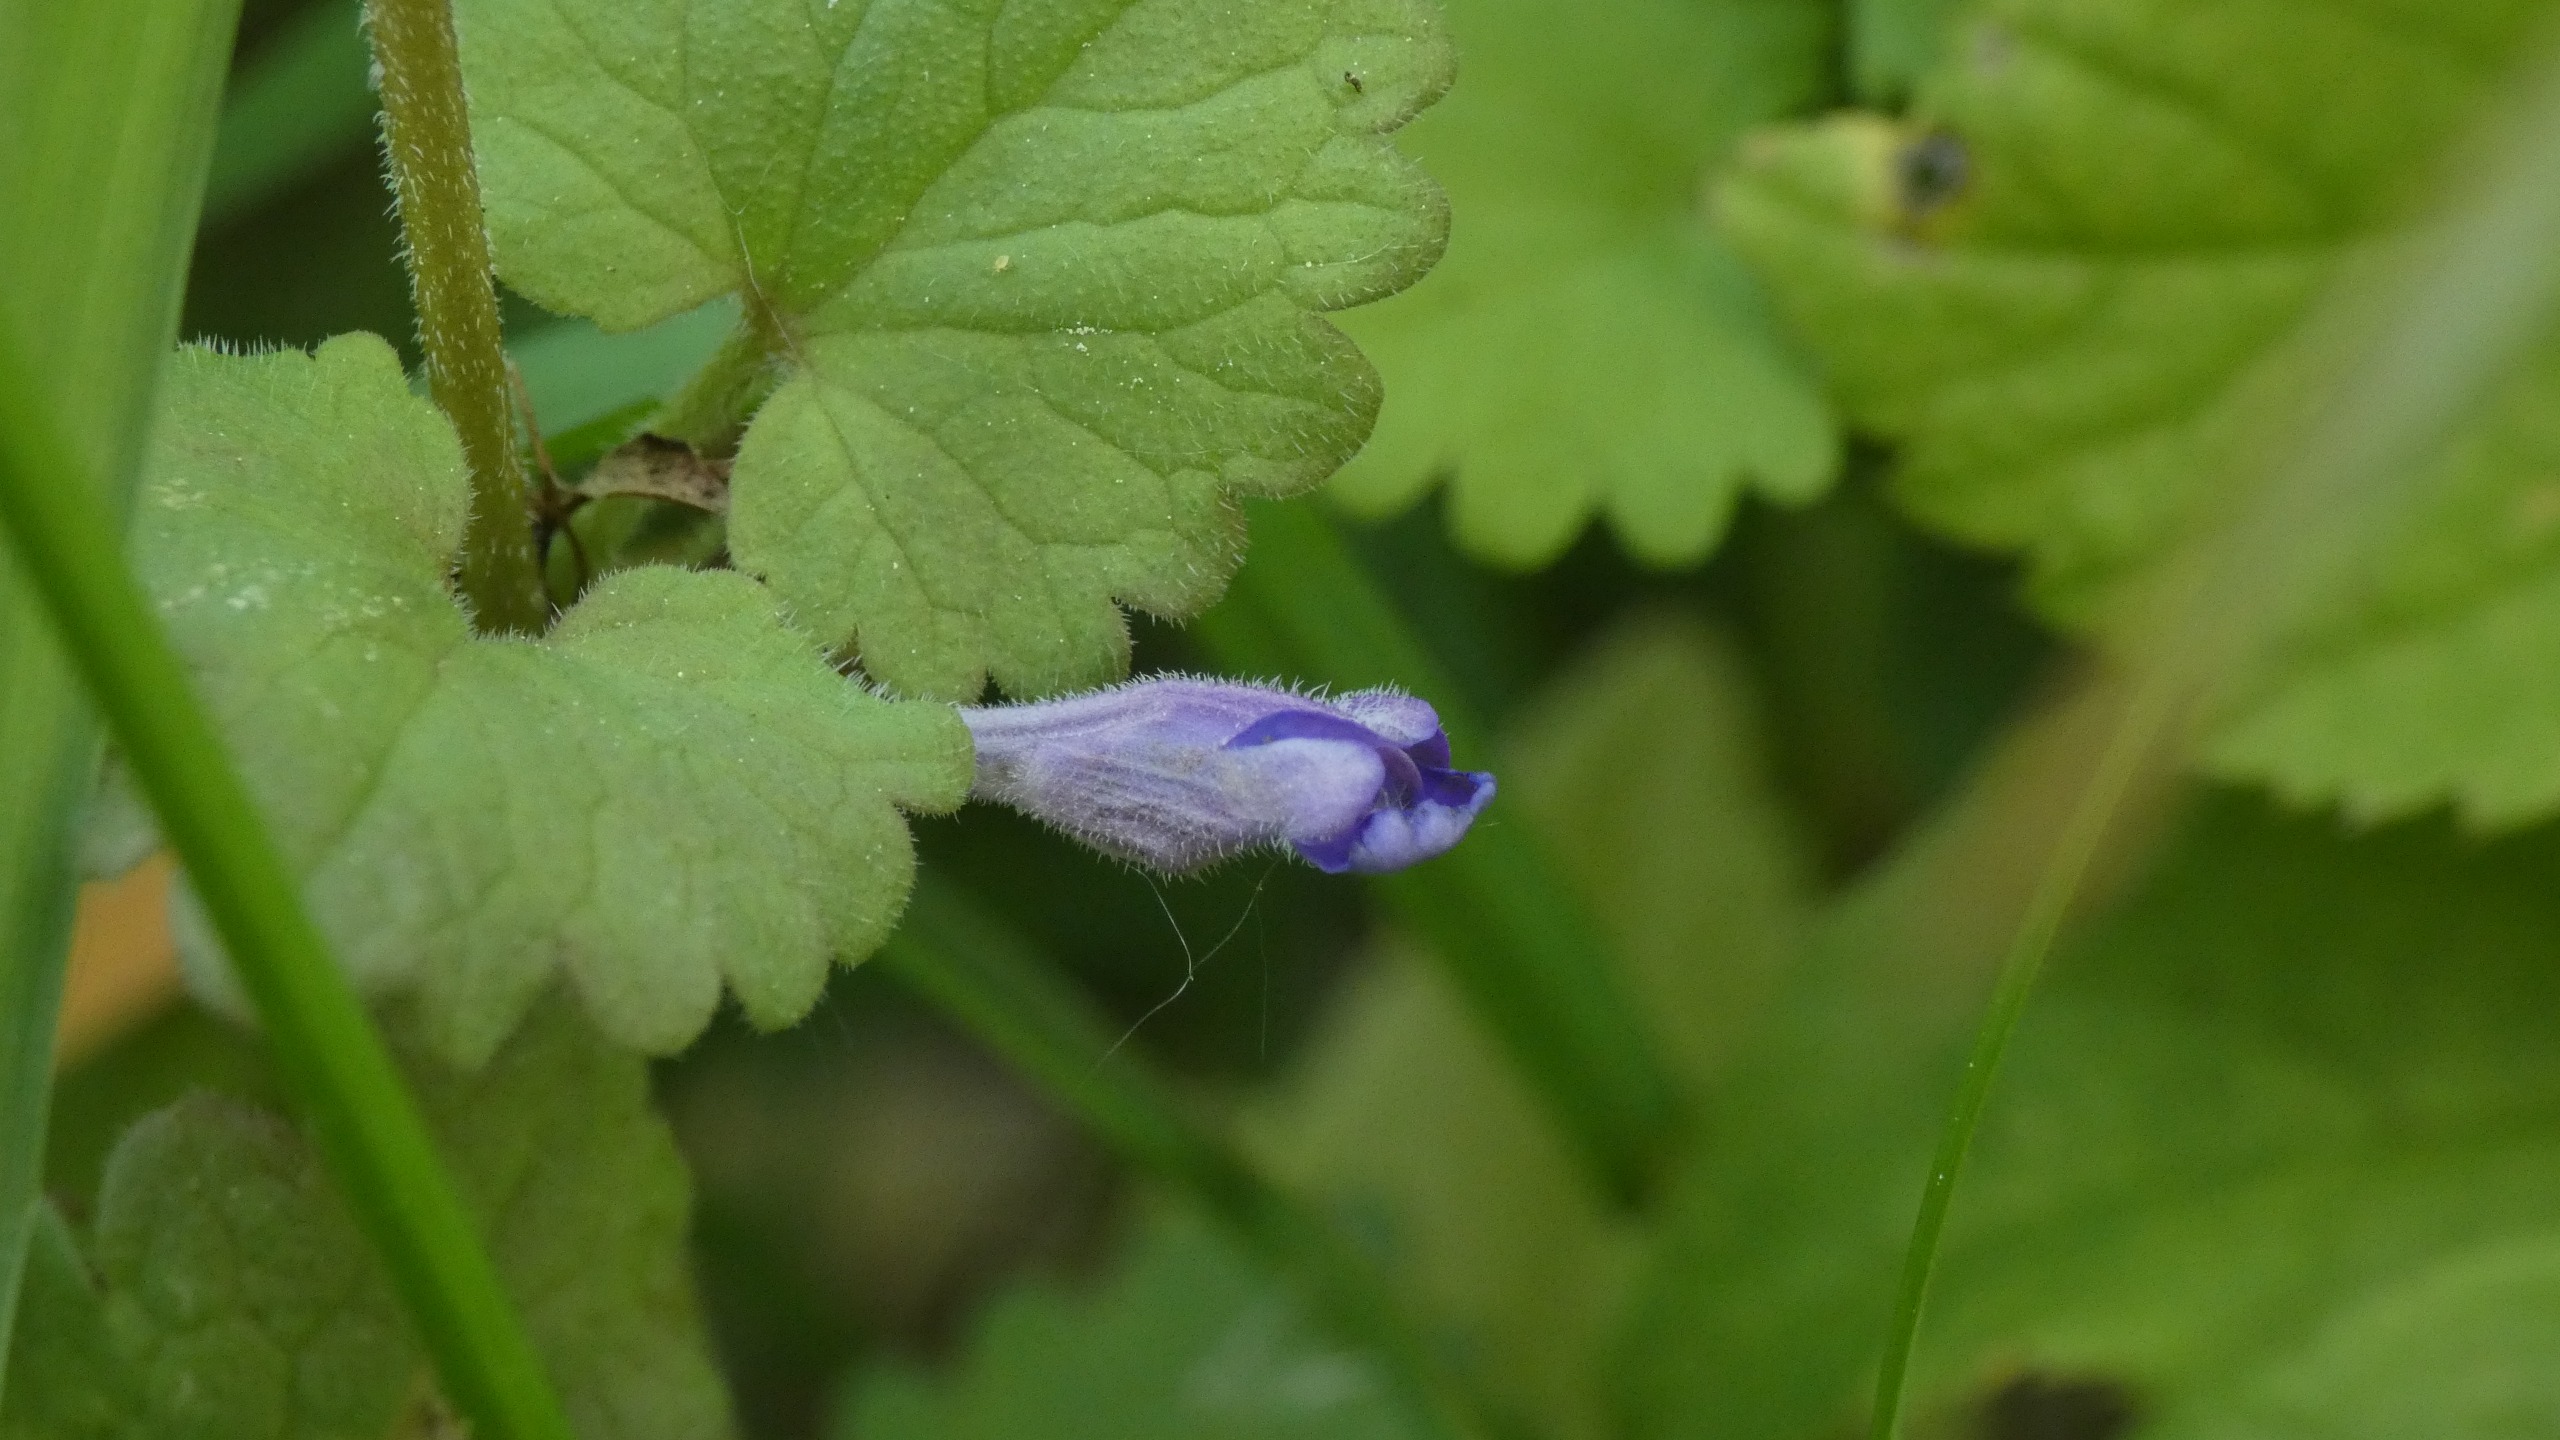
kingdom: Plantae
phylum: Tracheophyta
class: Magnoliopsida
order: Lamiales
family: Lamiaceae
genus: Glechoma
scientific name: Glechoma hederacea
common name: Korsknap
